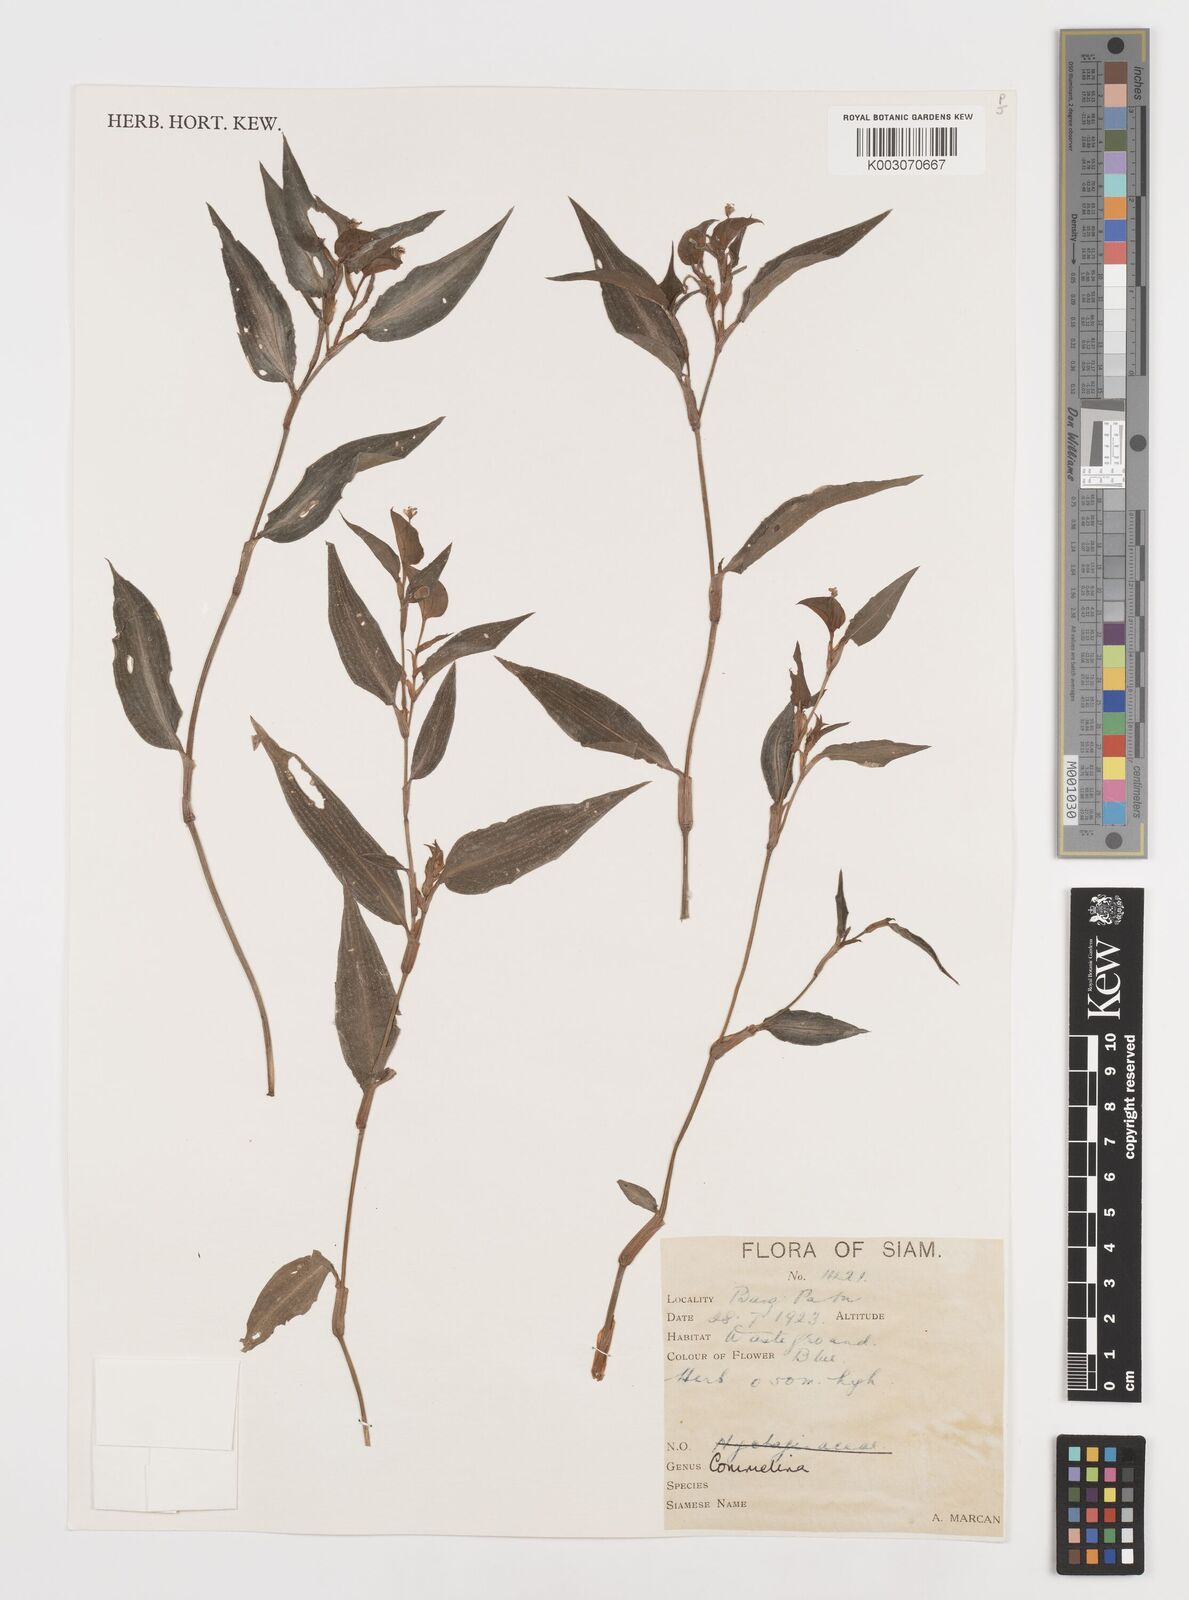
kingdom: Plantae
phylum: Tracheophyta
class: Liliopsida
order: Commelinales
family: Commelinaceae
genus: Commelina
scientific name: Commelina
